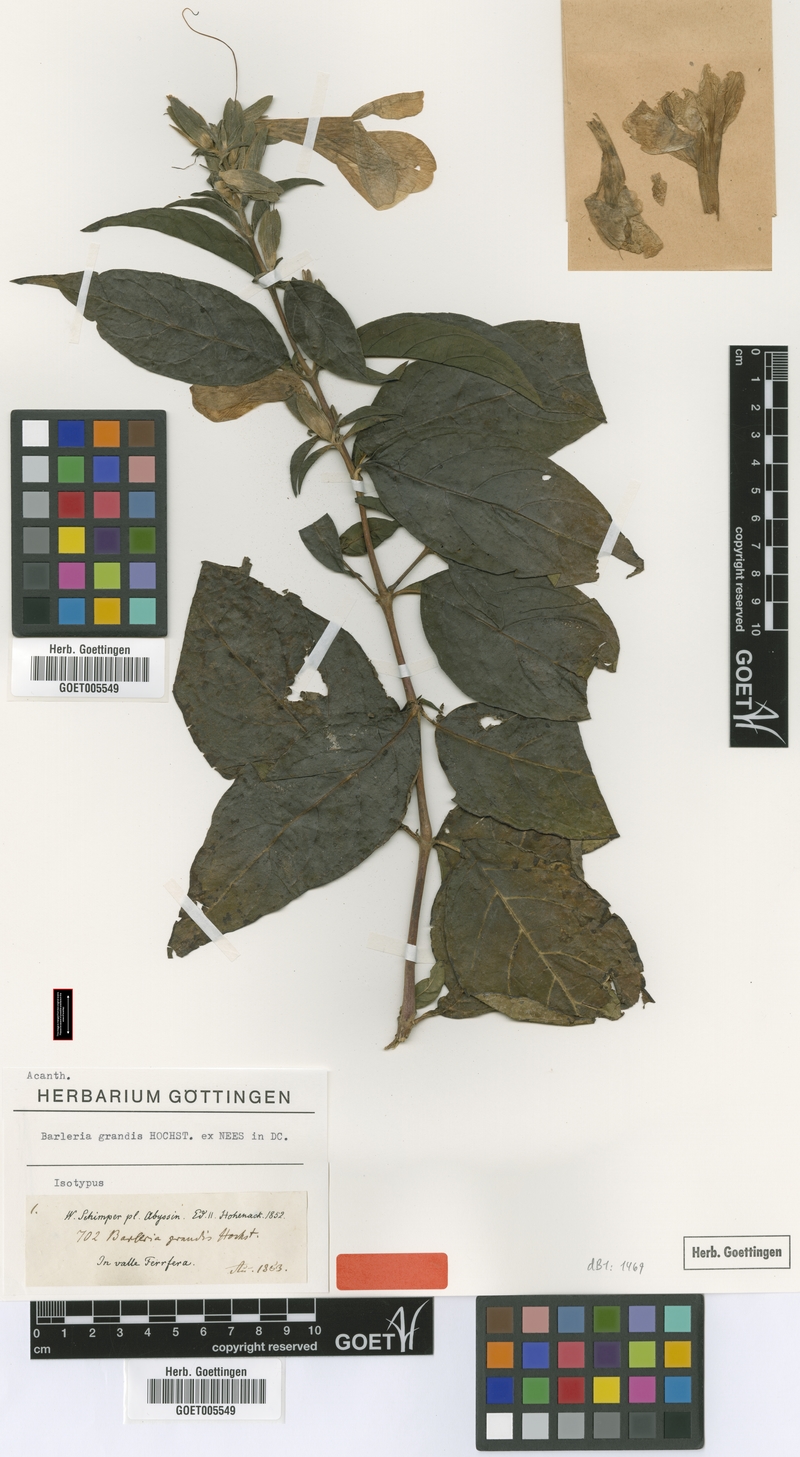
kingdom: Plantae
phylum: Tracheophyta
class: Magnoliopsida
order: Lamiales
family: Acanthaceae
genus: Barleria
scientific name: Barleria grandis
